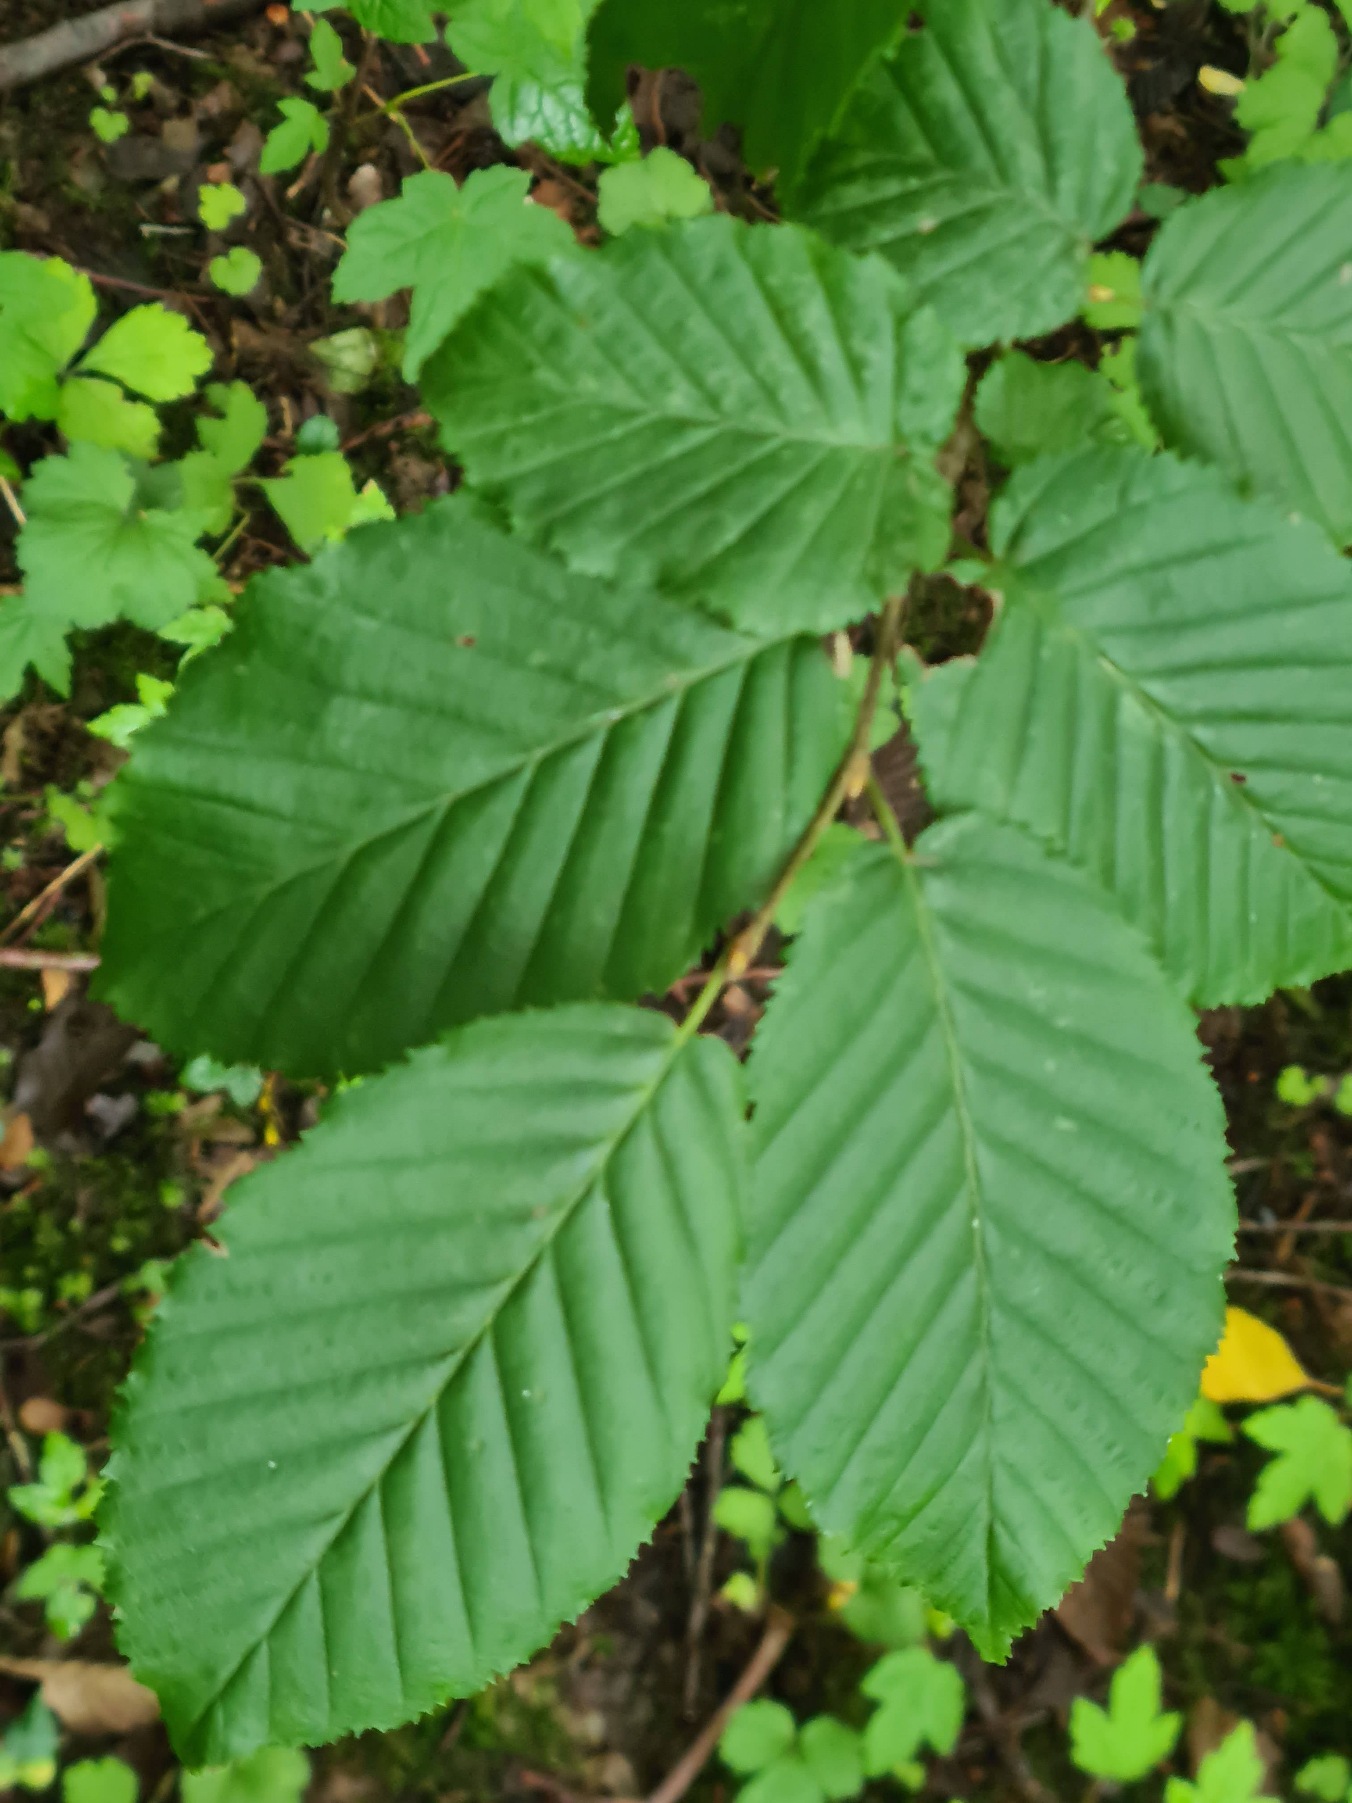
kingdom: Plantae
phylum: Tracheophyta
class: Magnoliopsida
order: Fagales
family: Betulaceae
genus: Carpinus
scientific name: Carpinus betulus
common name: Avnbøg
